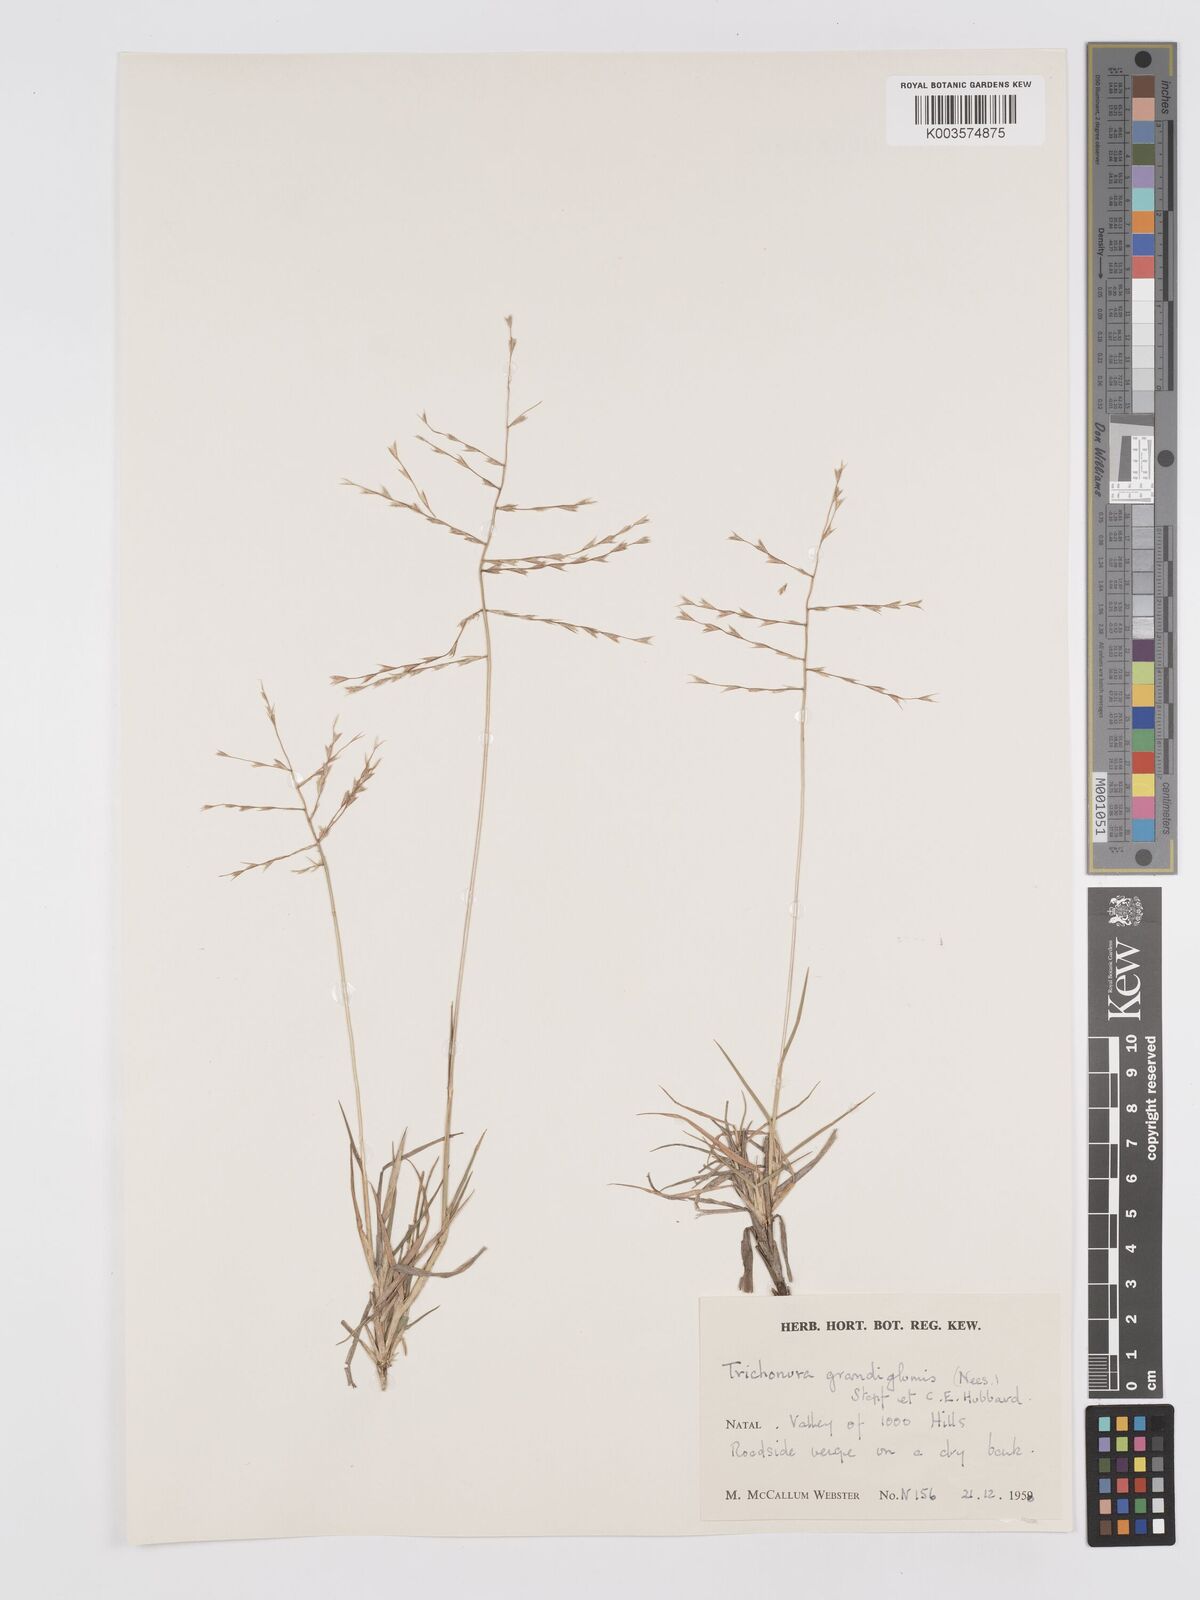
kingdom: Plantae
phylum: Tracheophyta
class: Liliopsida
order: Poales
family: Poaceae
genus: Trichoneura
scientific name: Trichoneura grandiglumis
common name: Rolling grass
